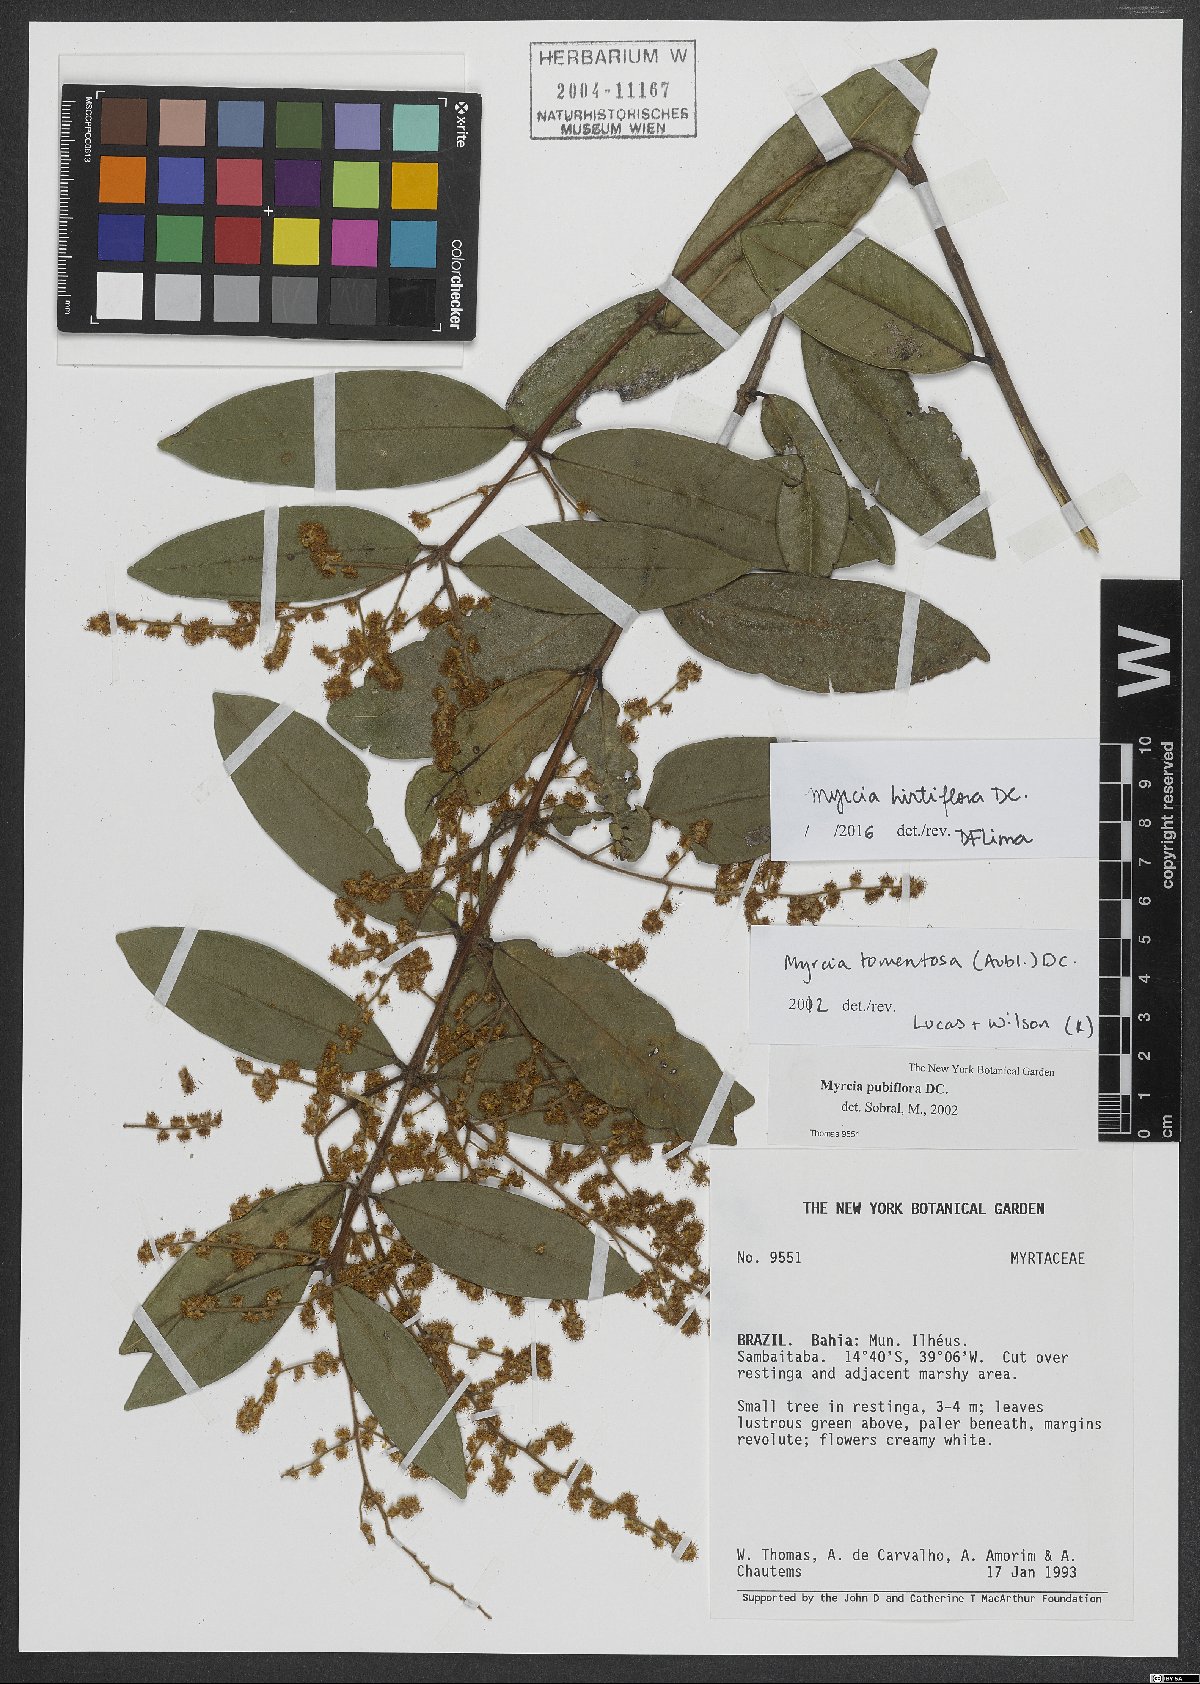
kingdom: Plantae
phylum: Tracheophyta
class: Magnoliopsida
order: Myrtales
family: Myrtaceae
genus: Myrcia
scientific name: Myrcia tomentosa
